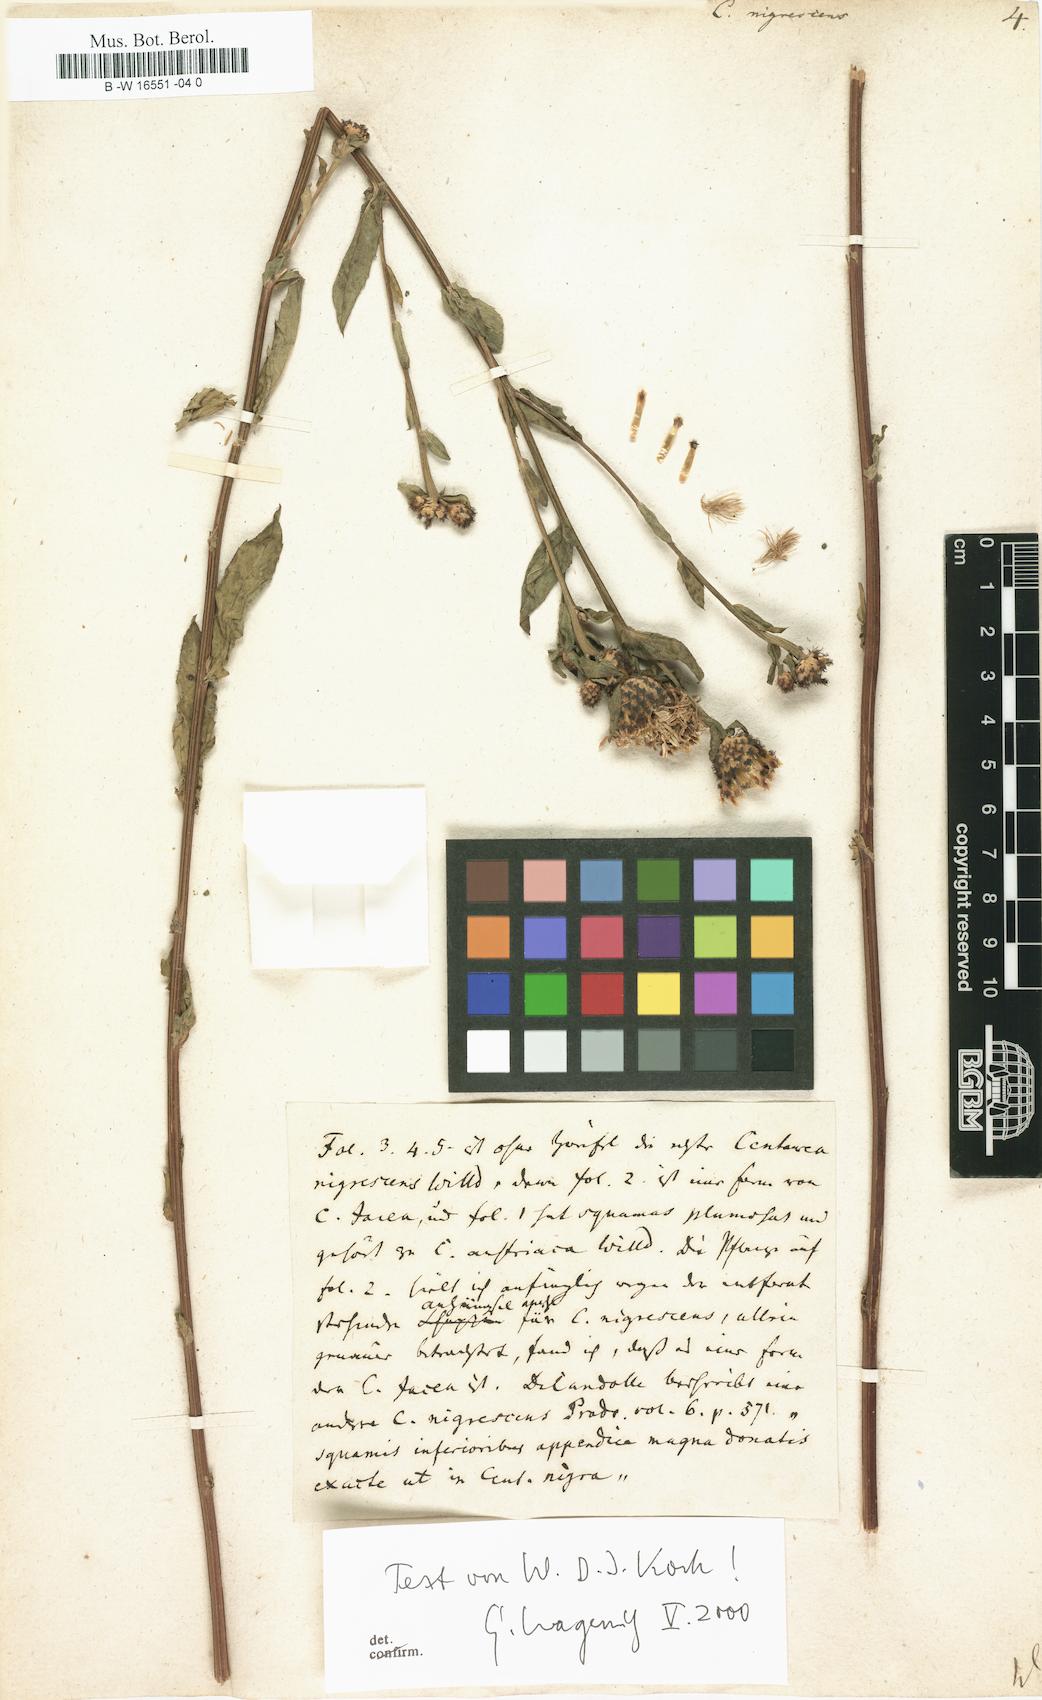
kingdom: Plantae
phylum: Tracheophyta
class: Magnoliopsida
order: Asterales
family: Asteraceae
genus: Centaurea
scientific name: Centaurea nigrescens
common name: Tyrol knapweed
